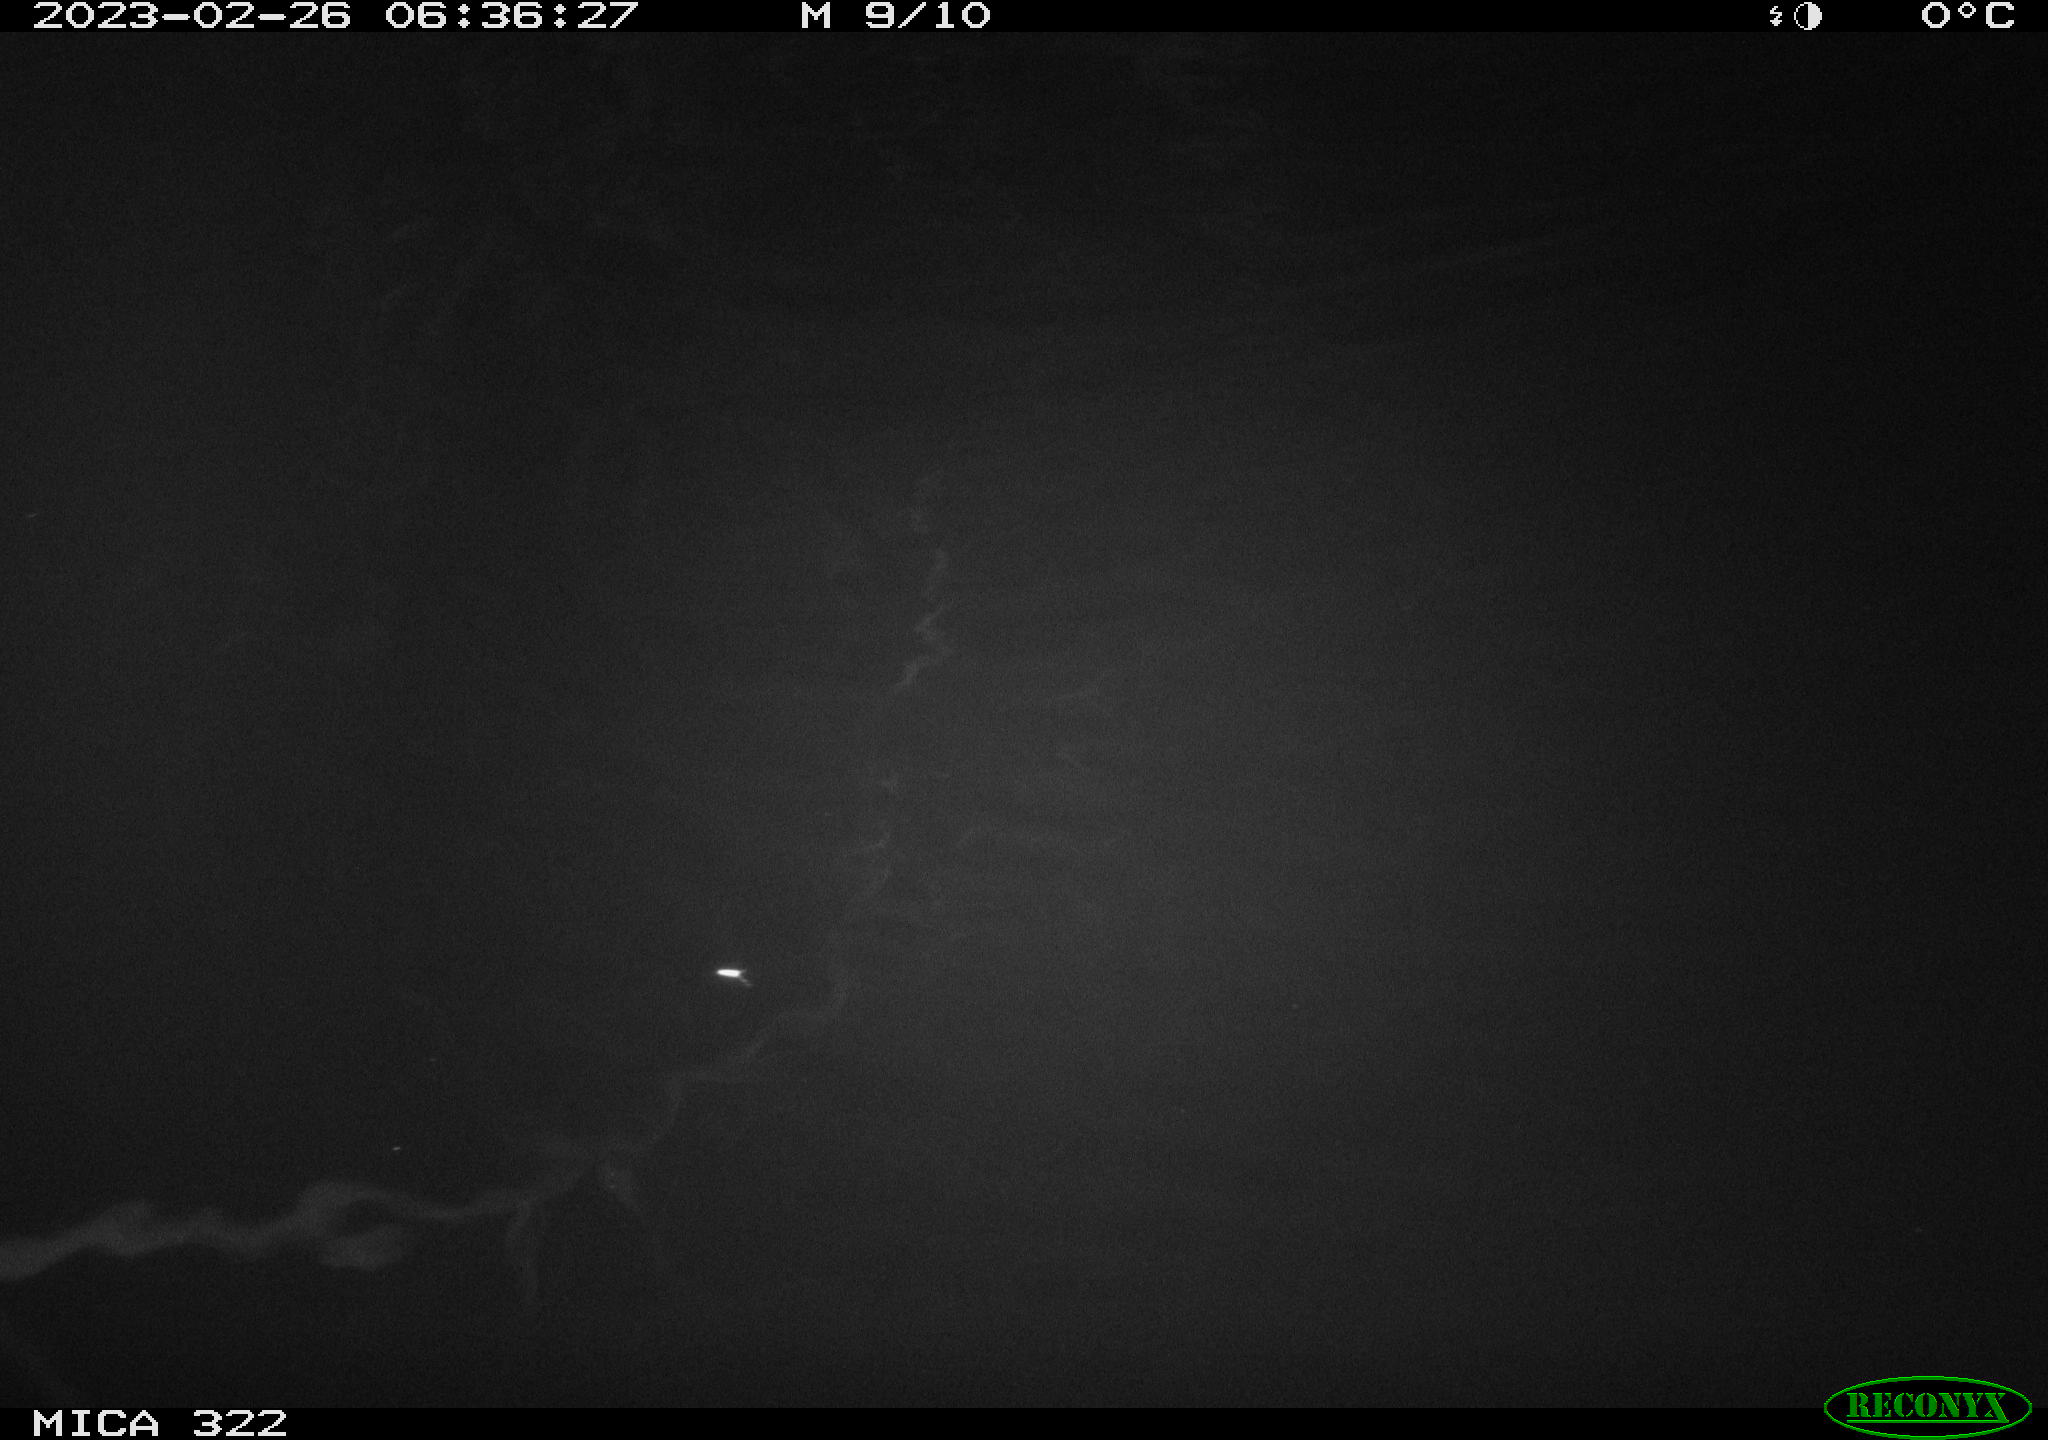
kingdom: Animalia
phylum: Chordata
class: Aves
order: Anseriformes
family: Anatidae
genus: Anas
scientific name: Anas
